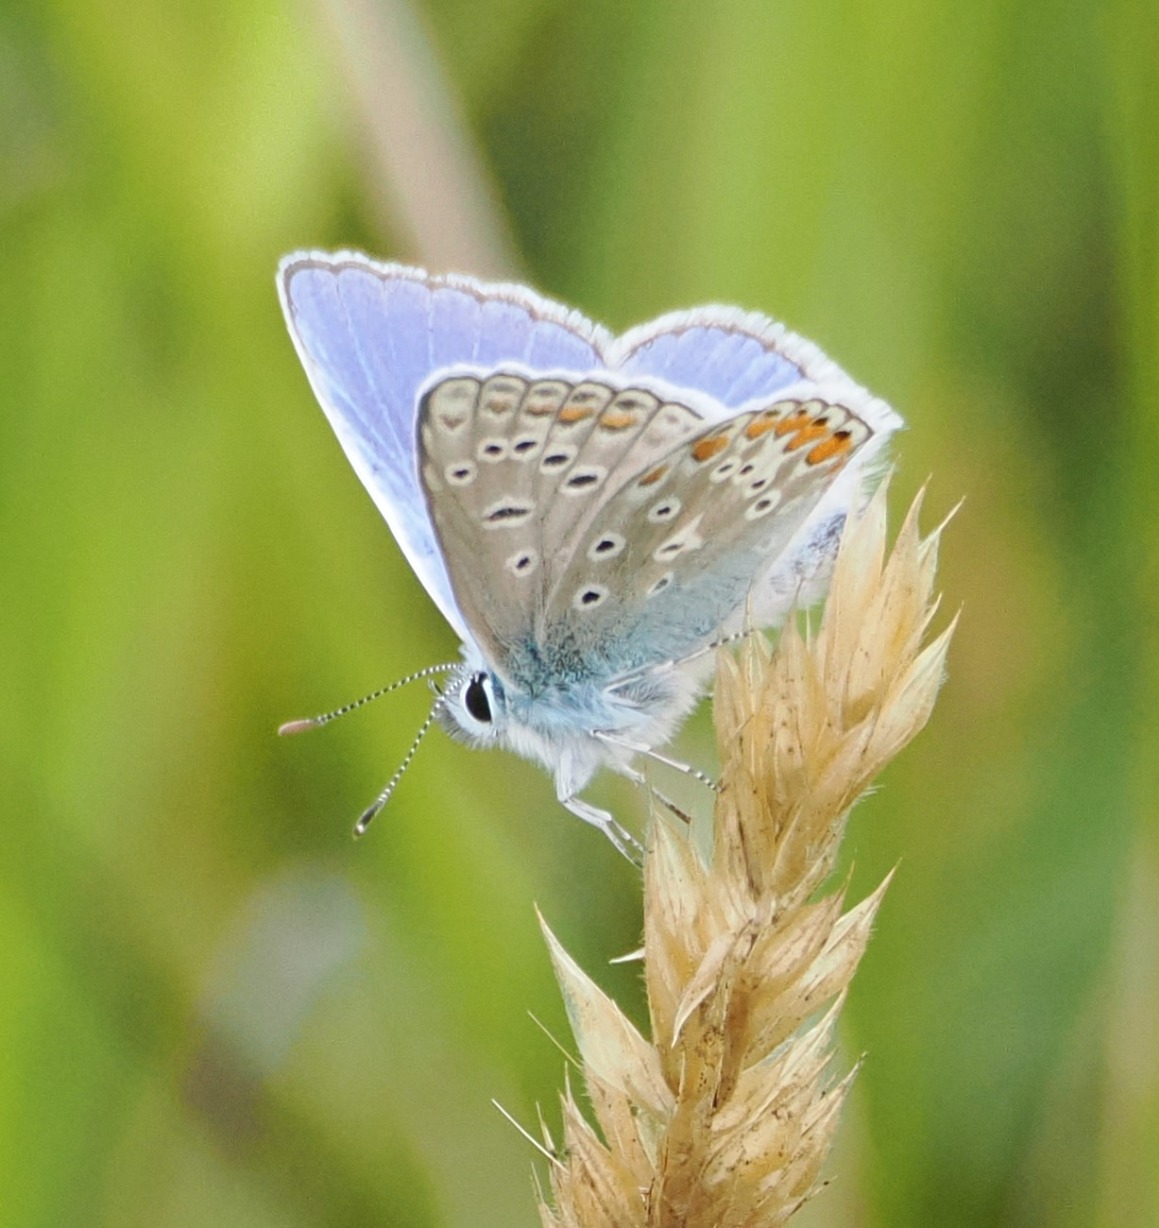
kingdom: Animalia
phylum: Arthropoda
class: Insecta
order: Lepidoptera
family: Lycaenidae
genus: Polyommatus
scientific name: Polyommatus icarus
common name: Almindelig blåfugl
